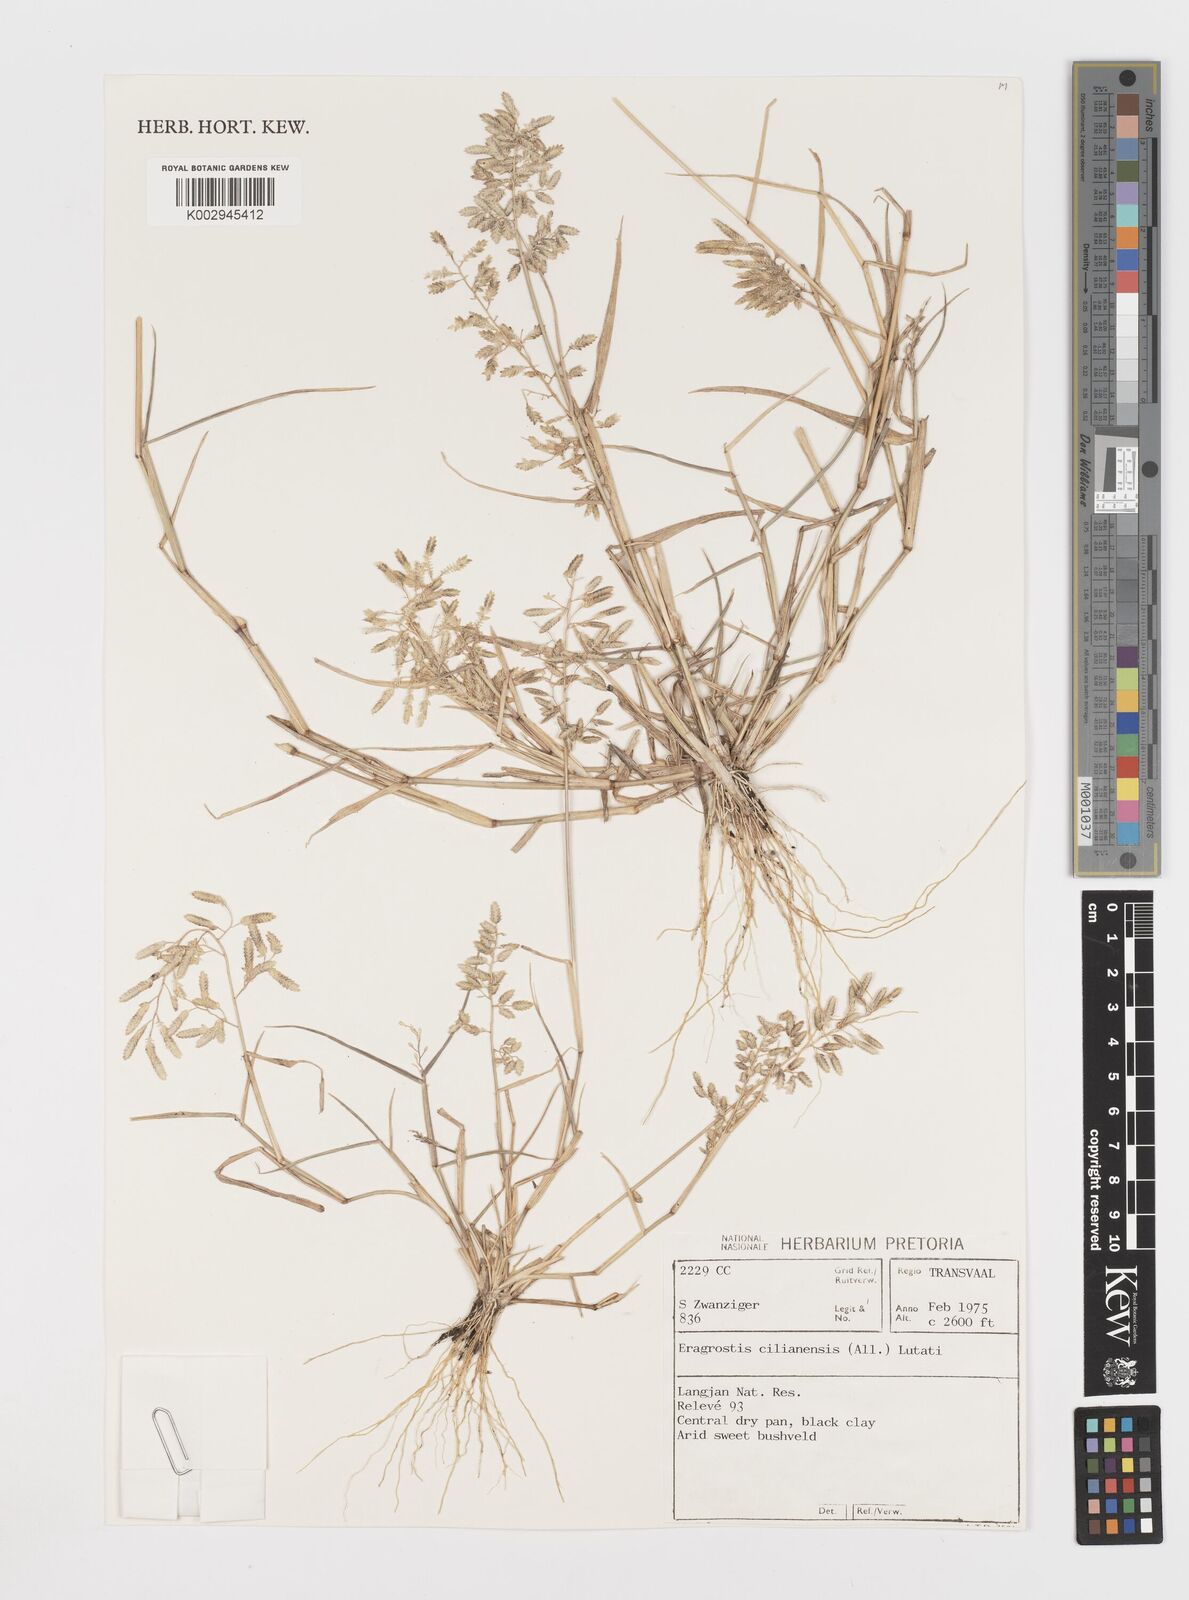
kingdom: Plantae
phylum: Tracheophyta
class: Liliopsida
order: Poales
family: Poaceae
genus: Eragrostis
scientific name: Eragrostis cilianensis
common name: Stinkgrass
